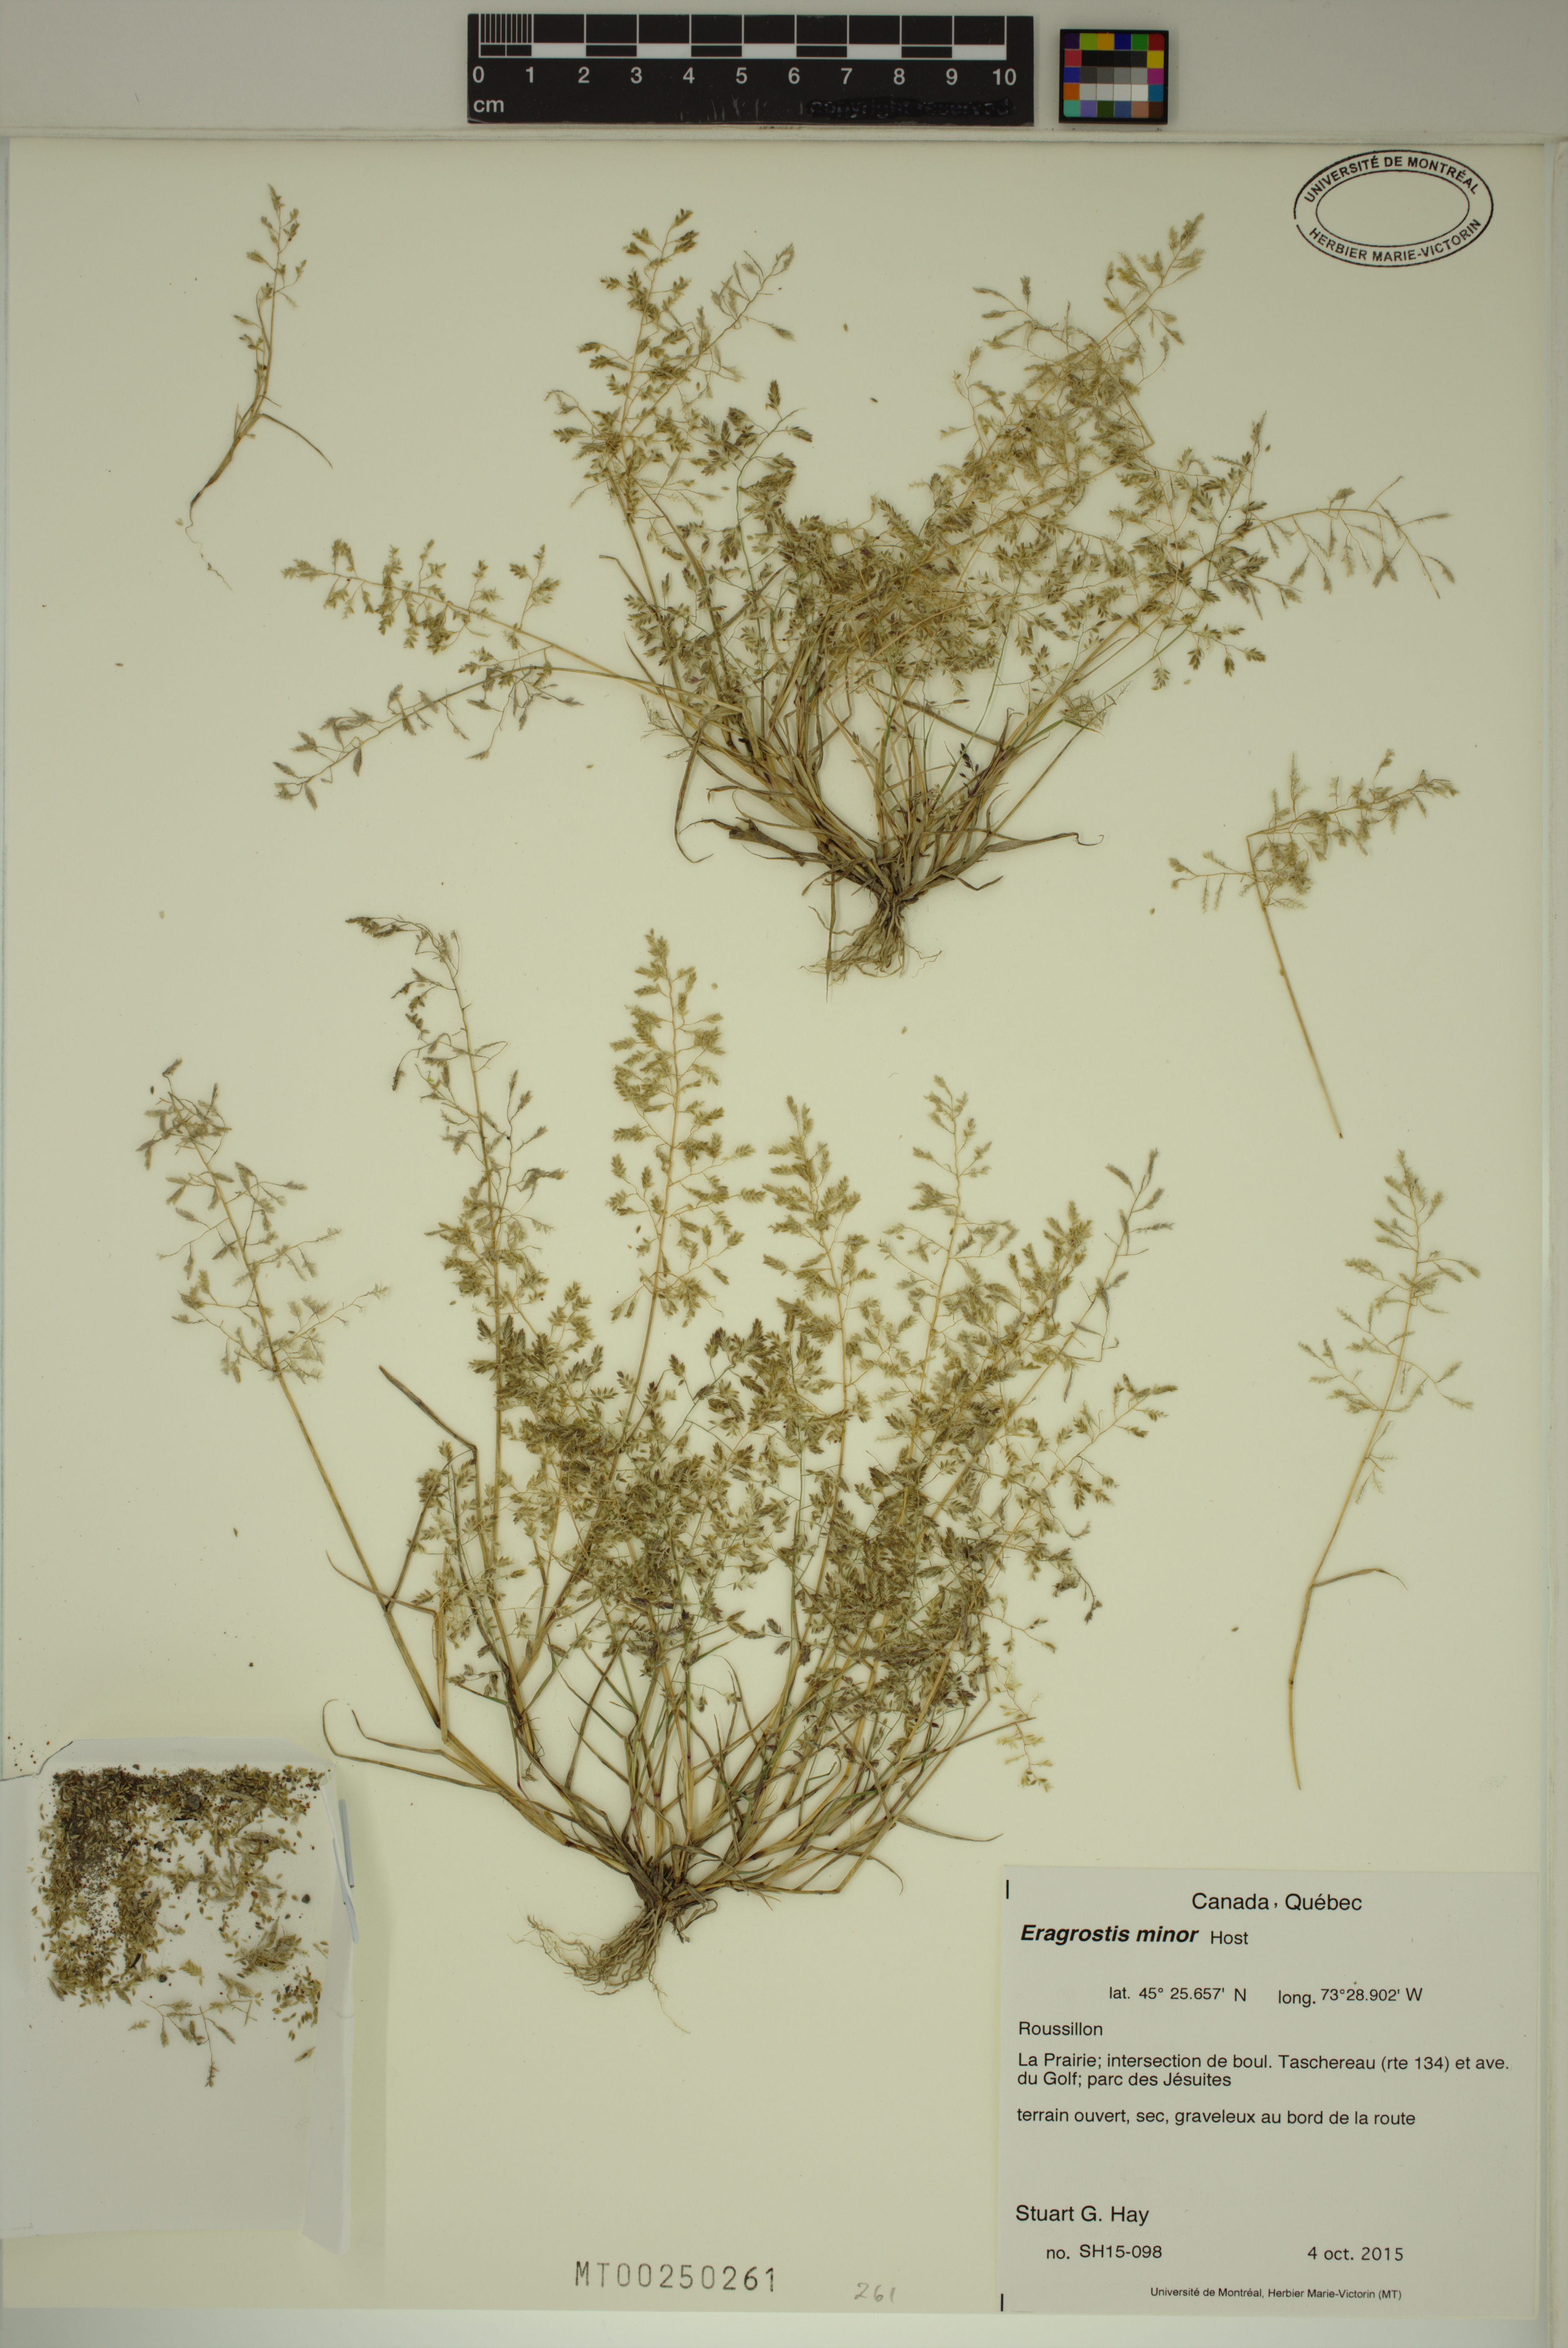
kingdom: Plantae
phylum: Tracheophyta
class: Liliopsida
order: Poales
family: Poaceae
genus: Eragrostis
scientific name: Eragrostis minor
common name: Small love-grass
